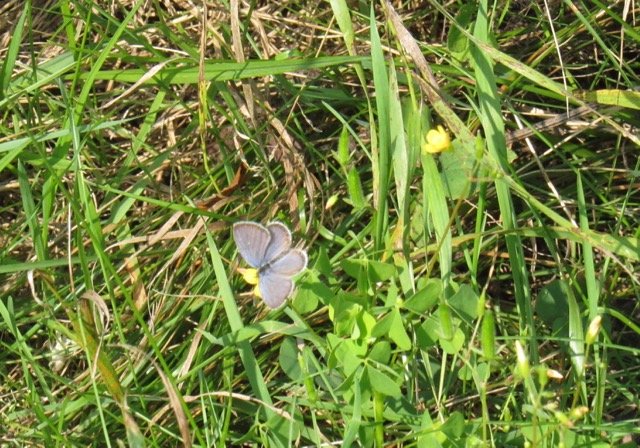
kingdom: Animalia
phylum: Arthropoda
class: Insecta
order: Lepidoptera
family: Lycaenidae
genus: Elkalyce
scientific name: Elkalyce comyntas
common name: Eastern Tailed-Blue
